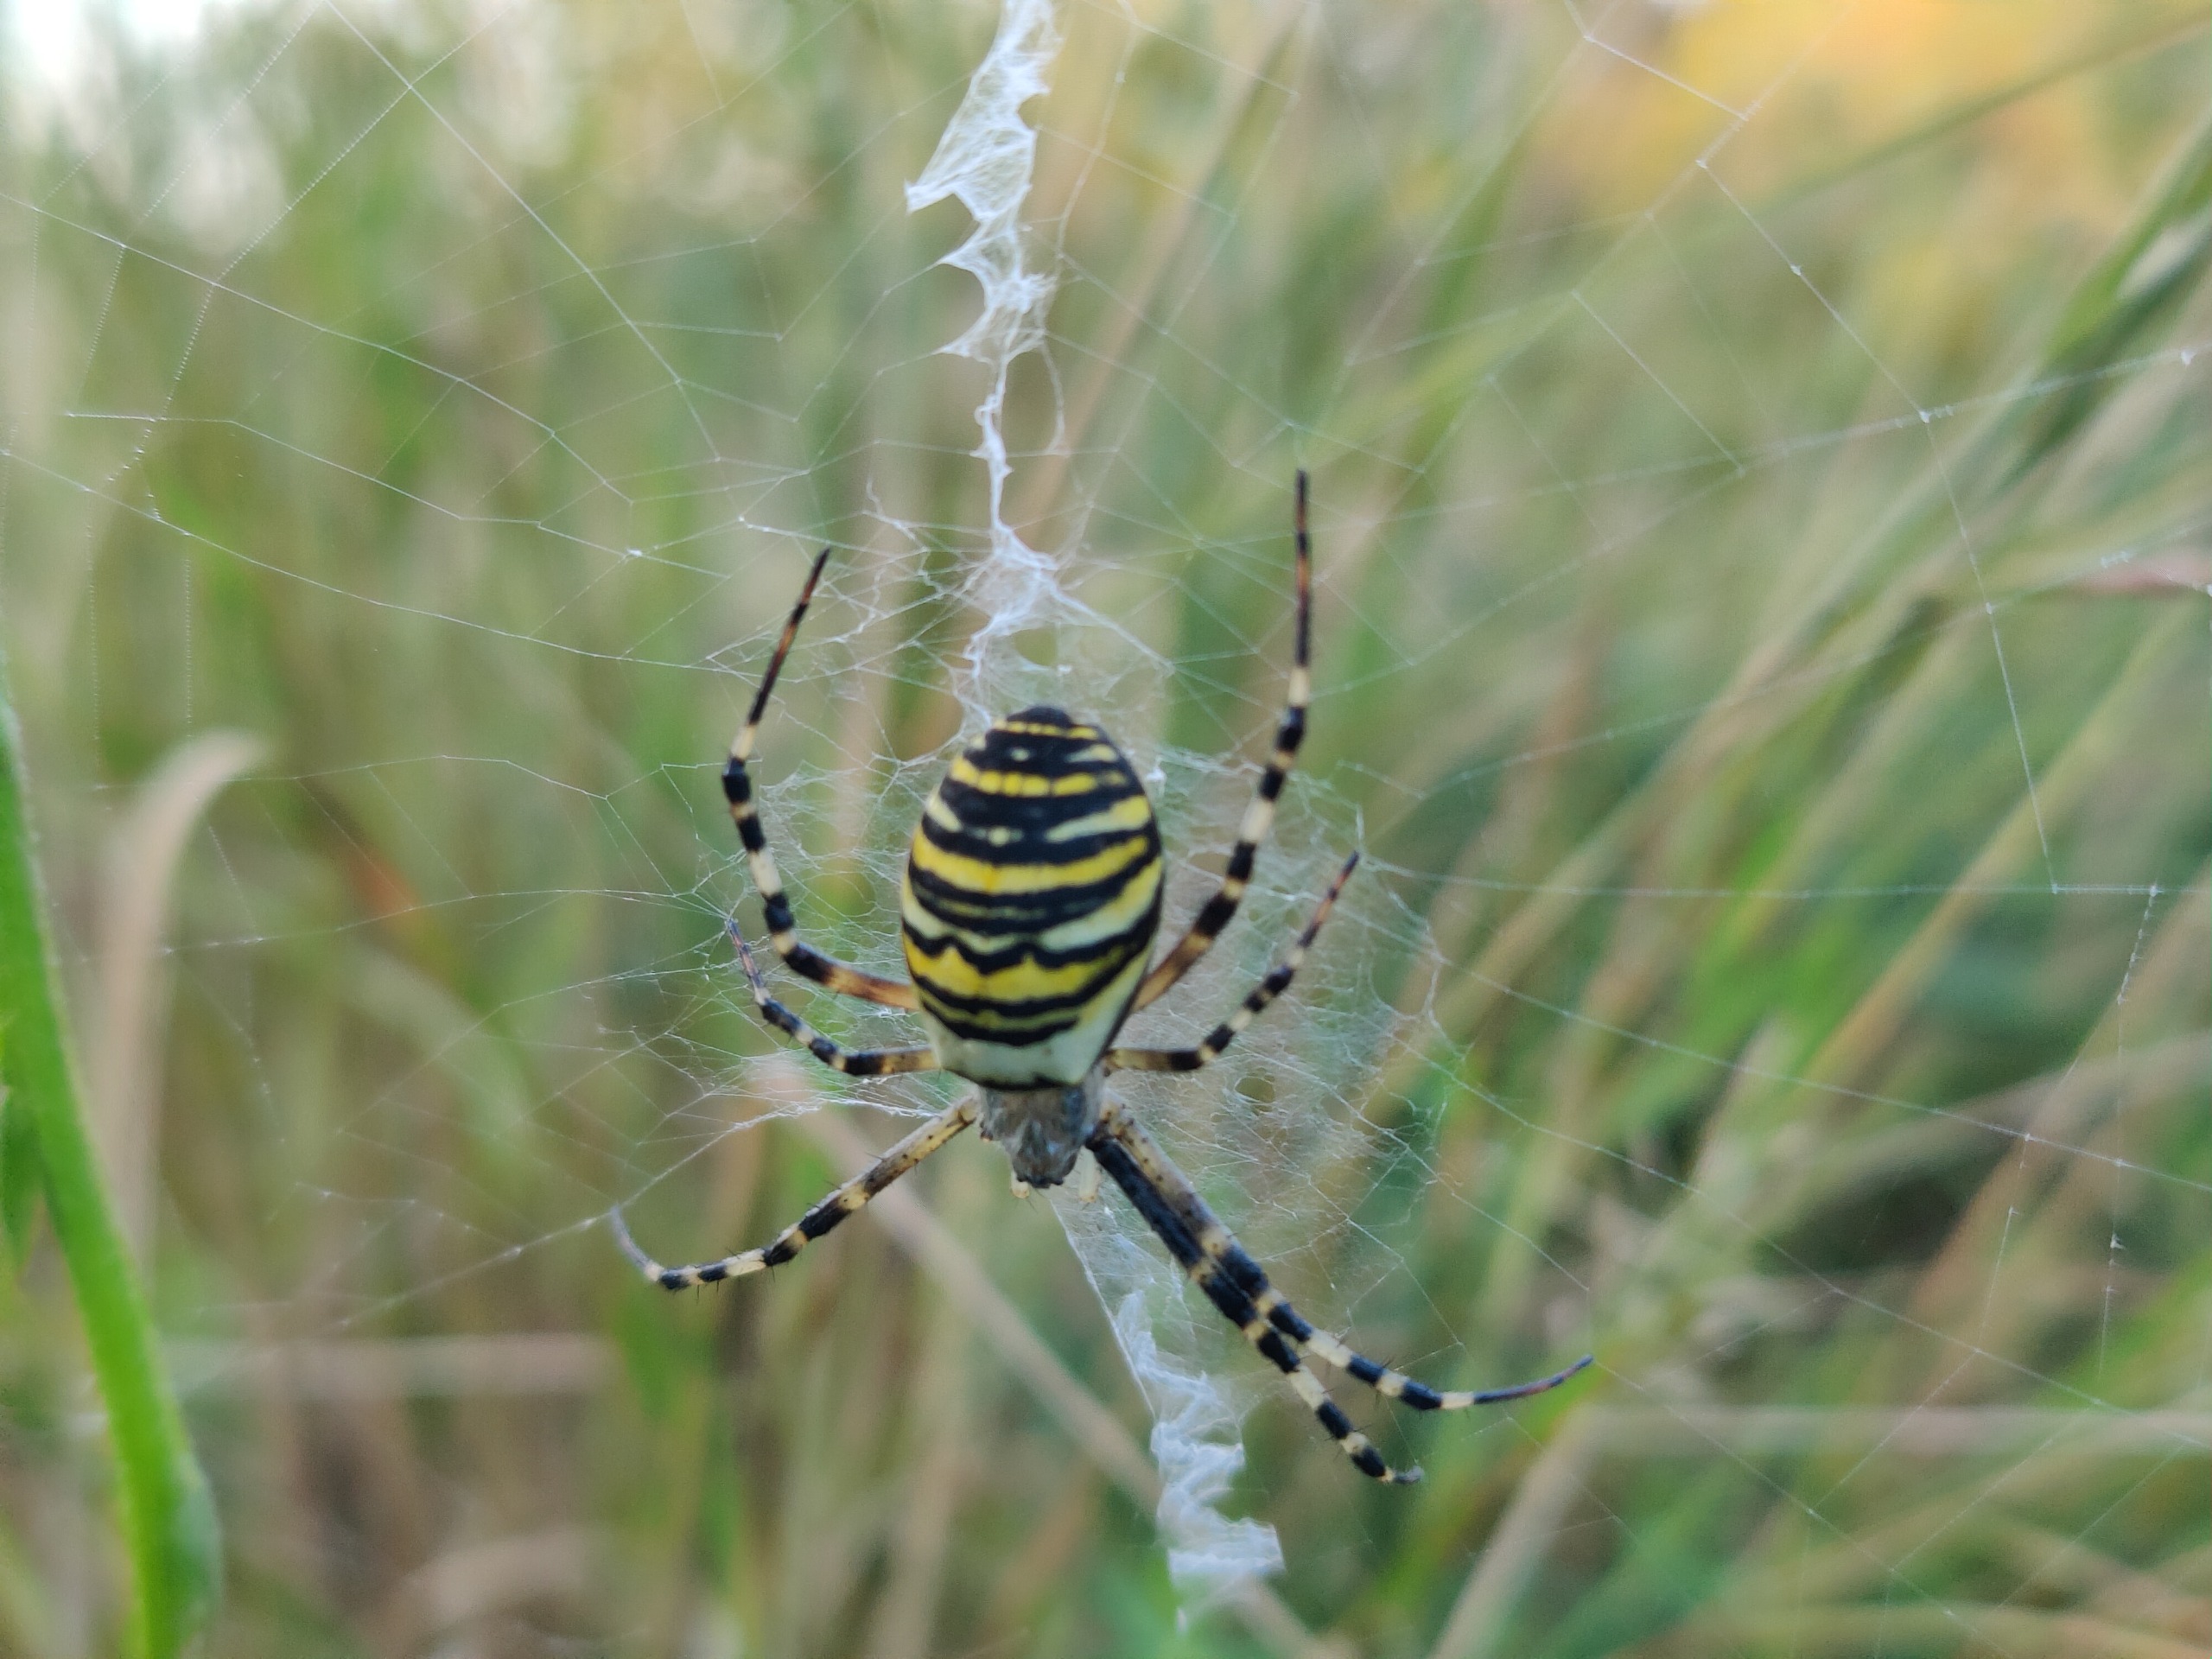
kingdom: Animalia
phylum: Arthropoda
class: Arachnida
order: Araneae
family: Araneidae
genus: Argiope
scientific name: Argiope bruennichi
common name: Hvepseedderkop
